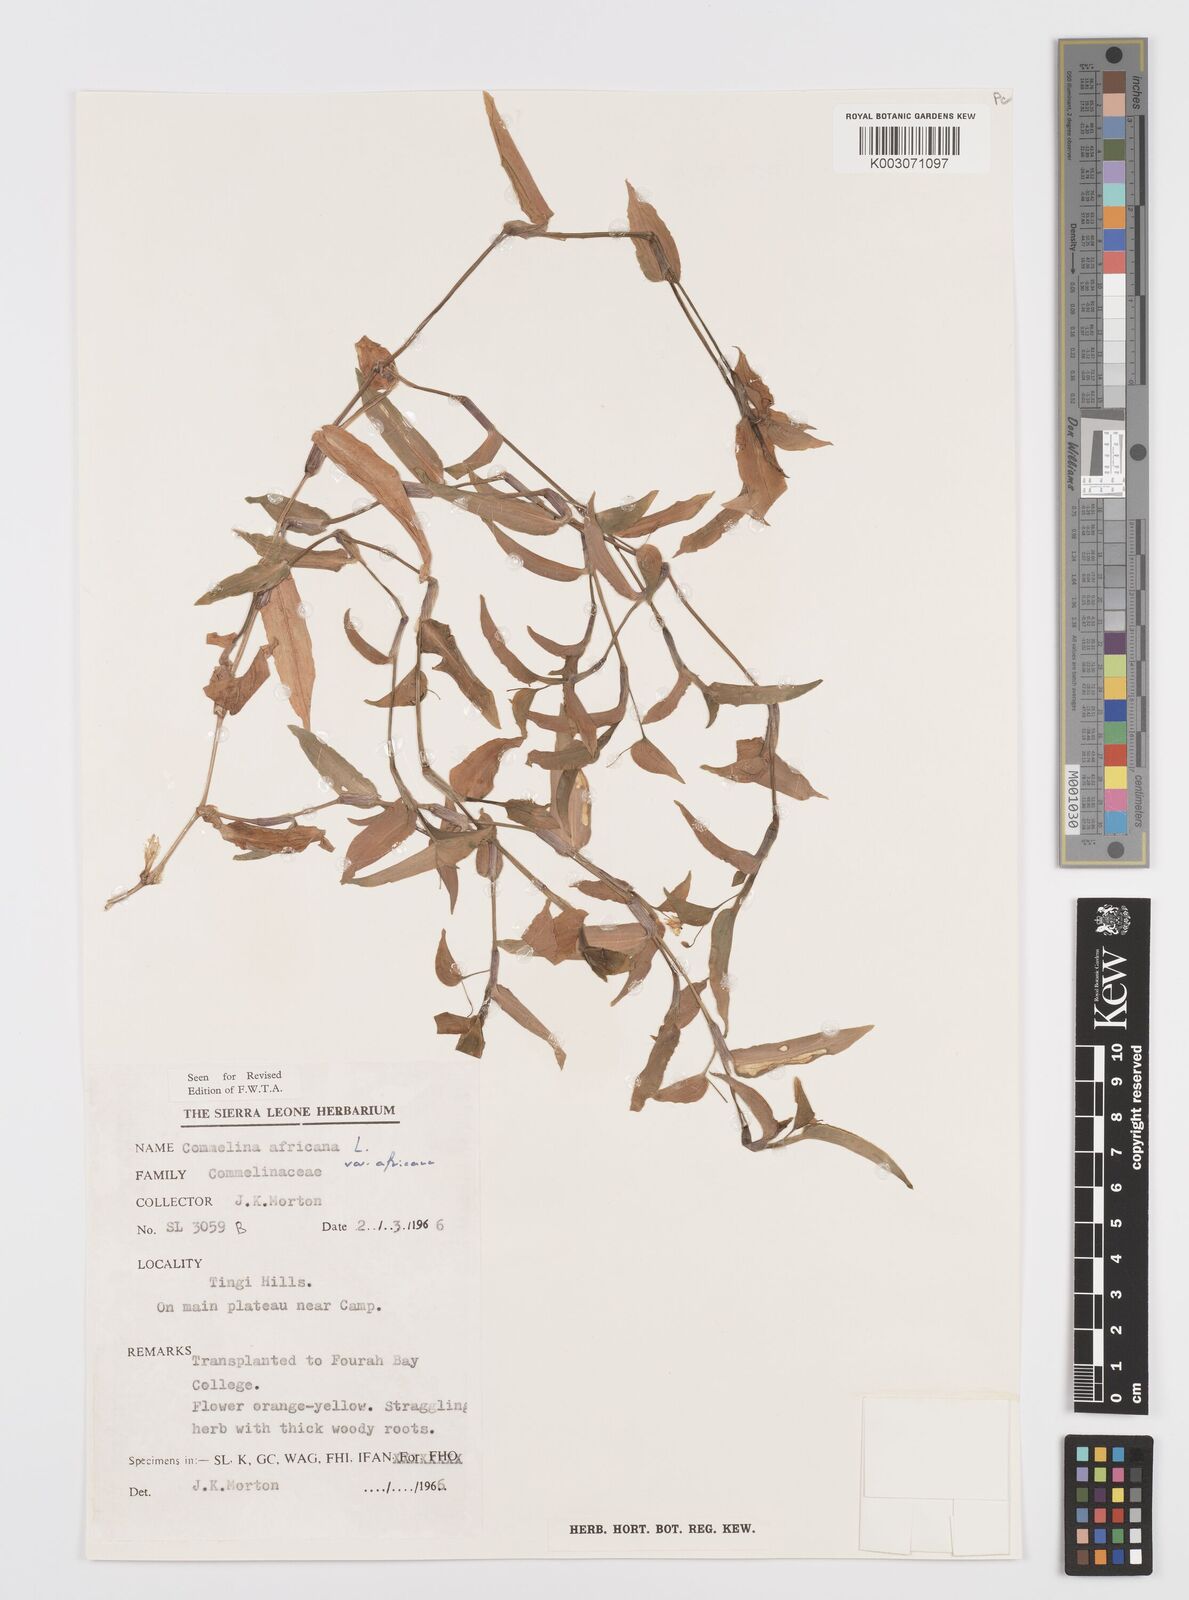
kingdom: Plantae
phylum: Tracheophyta
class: Liliopsida
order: Commelinales
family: Commelinaceae
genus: Commelina
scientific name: Commelina africana
